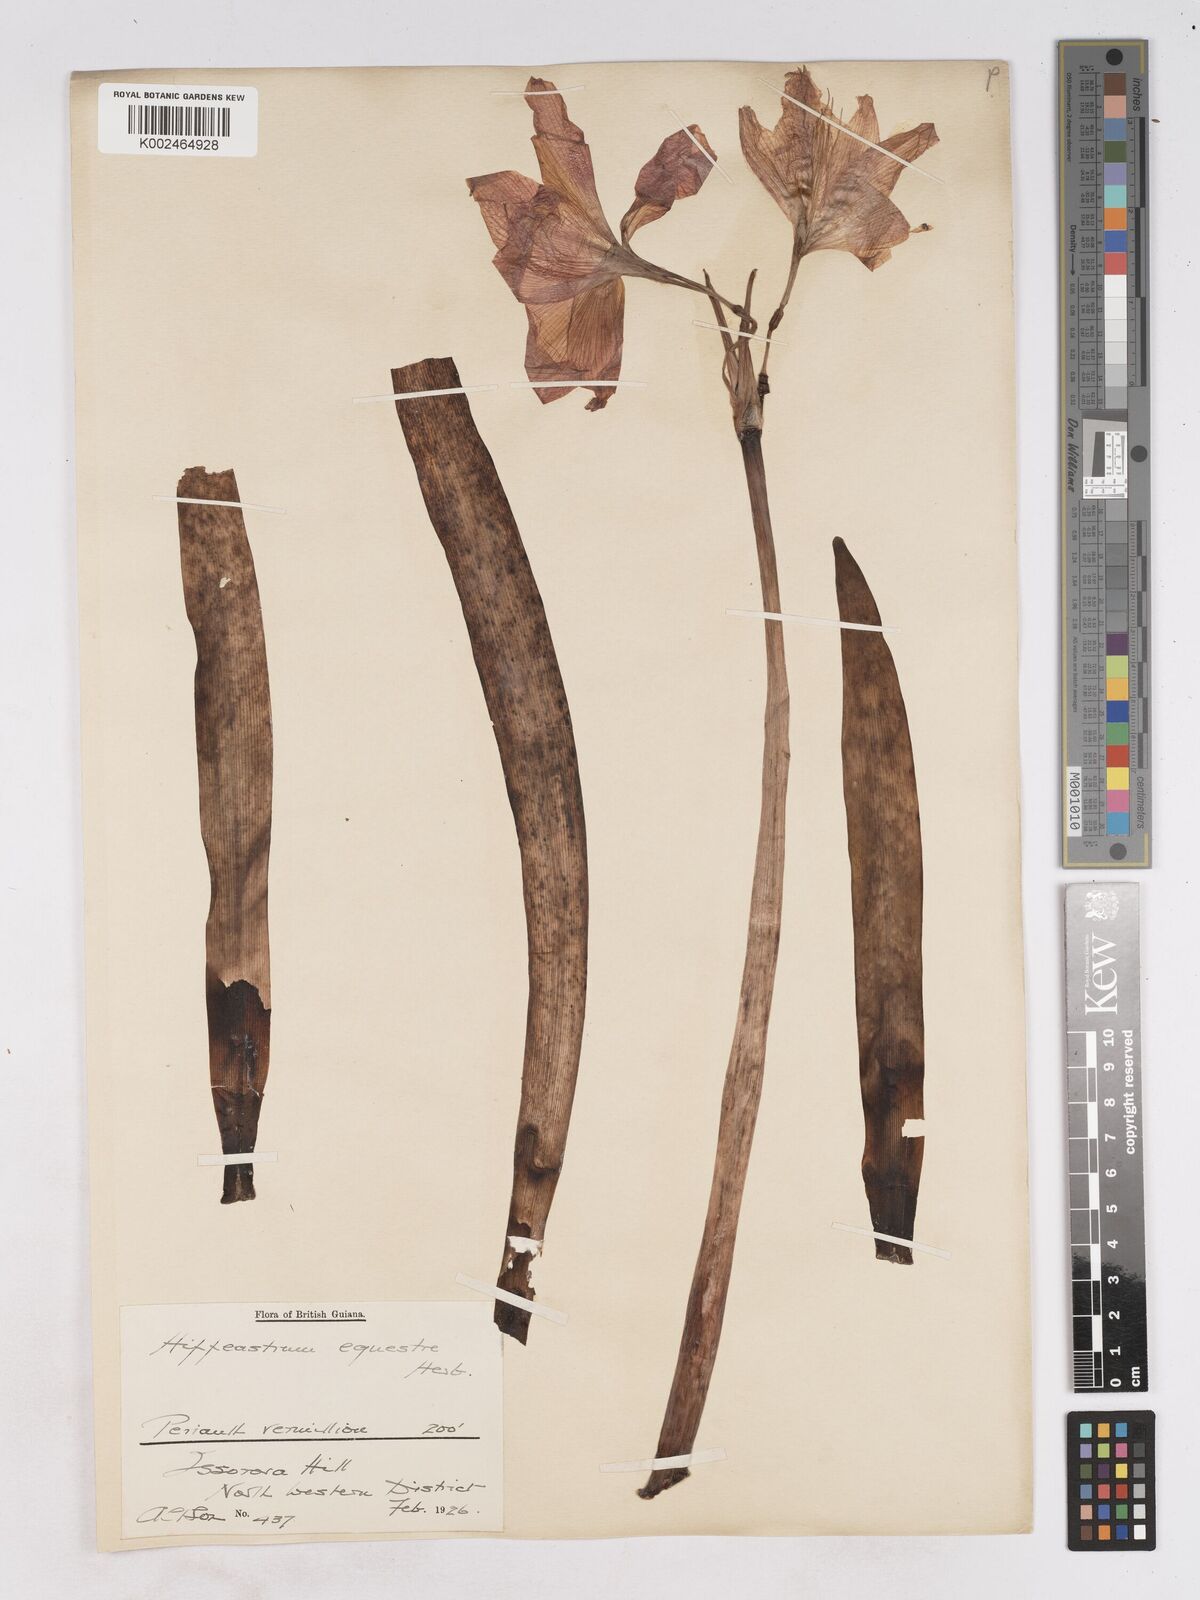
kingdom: Plantae
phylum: Tracheophyta
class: Liliopsida
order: Asparagales
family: Amaryllidaceae
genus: Hippeastrum
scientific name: Hippeastrum puniceum
